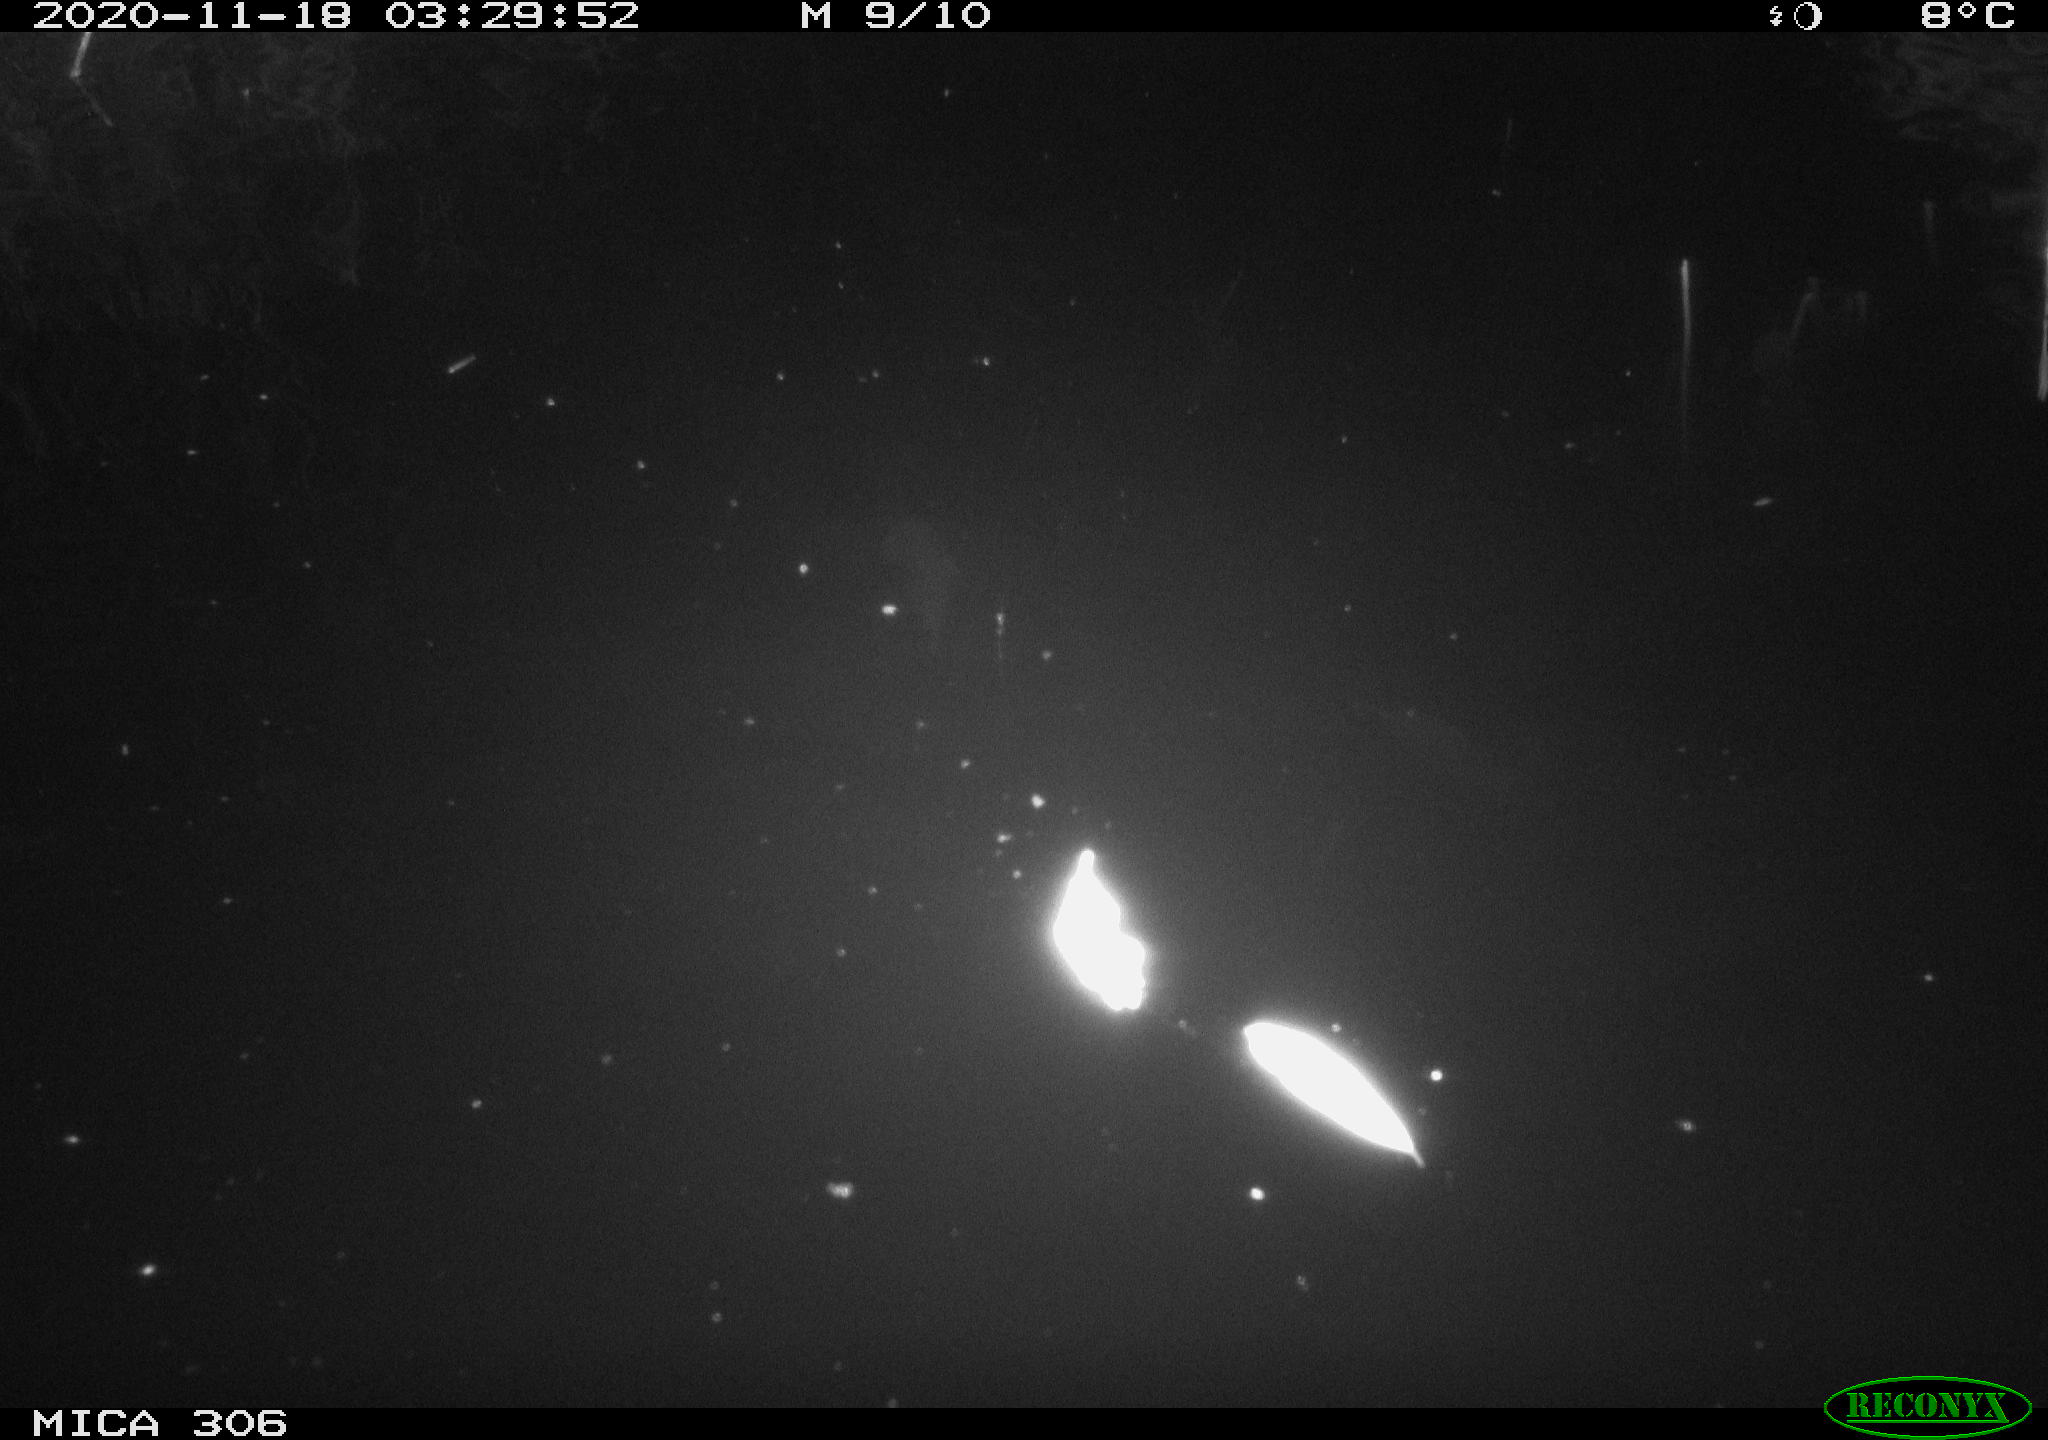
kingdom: Animalia
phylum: Chordata
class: Mammalia
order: Rodentia
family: Cricetidae
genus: Ondatra
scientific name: Ondatra zibethicus
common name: Muskrat
